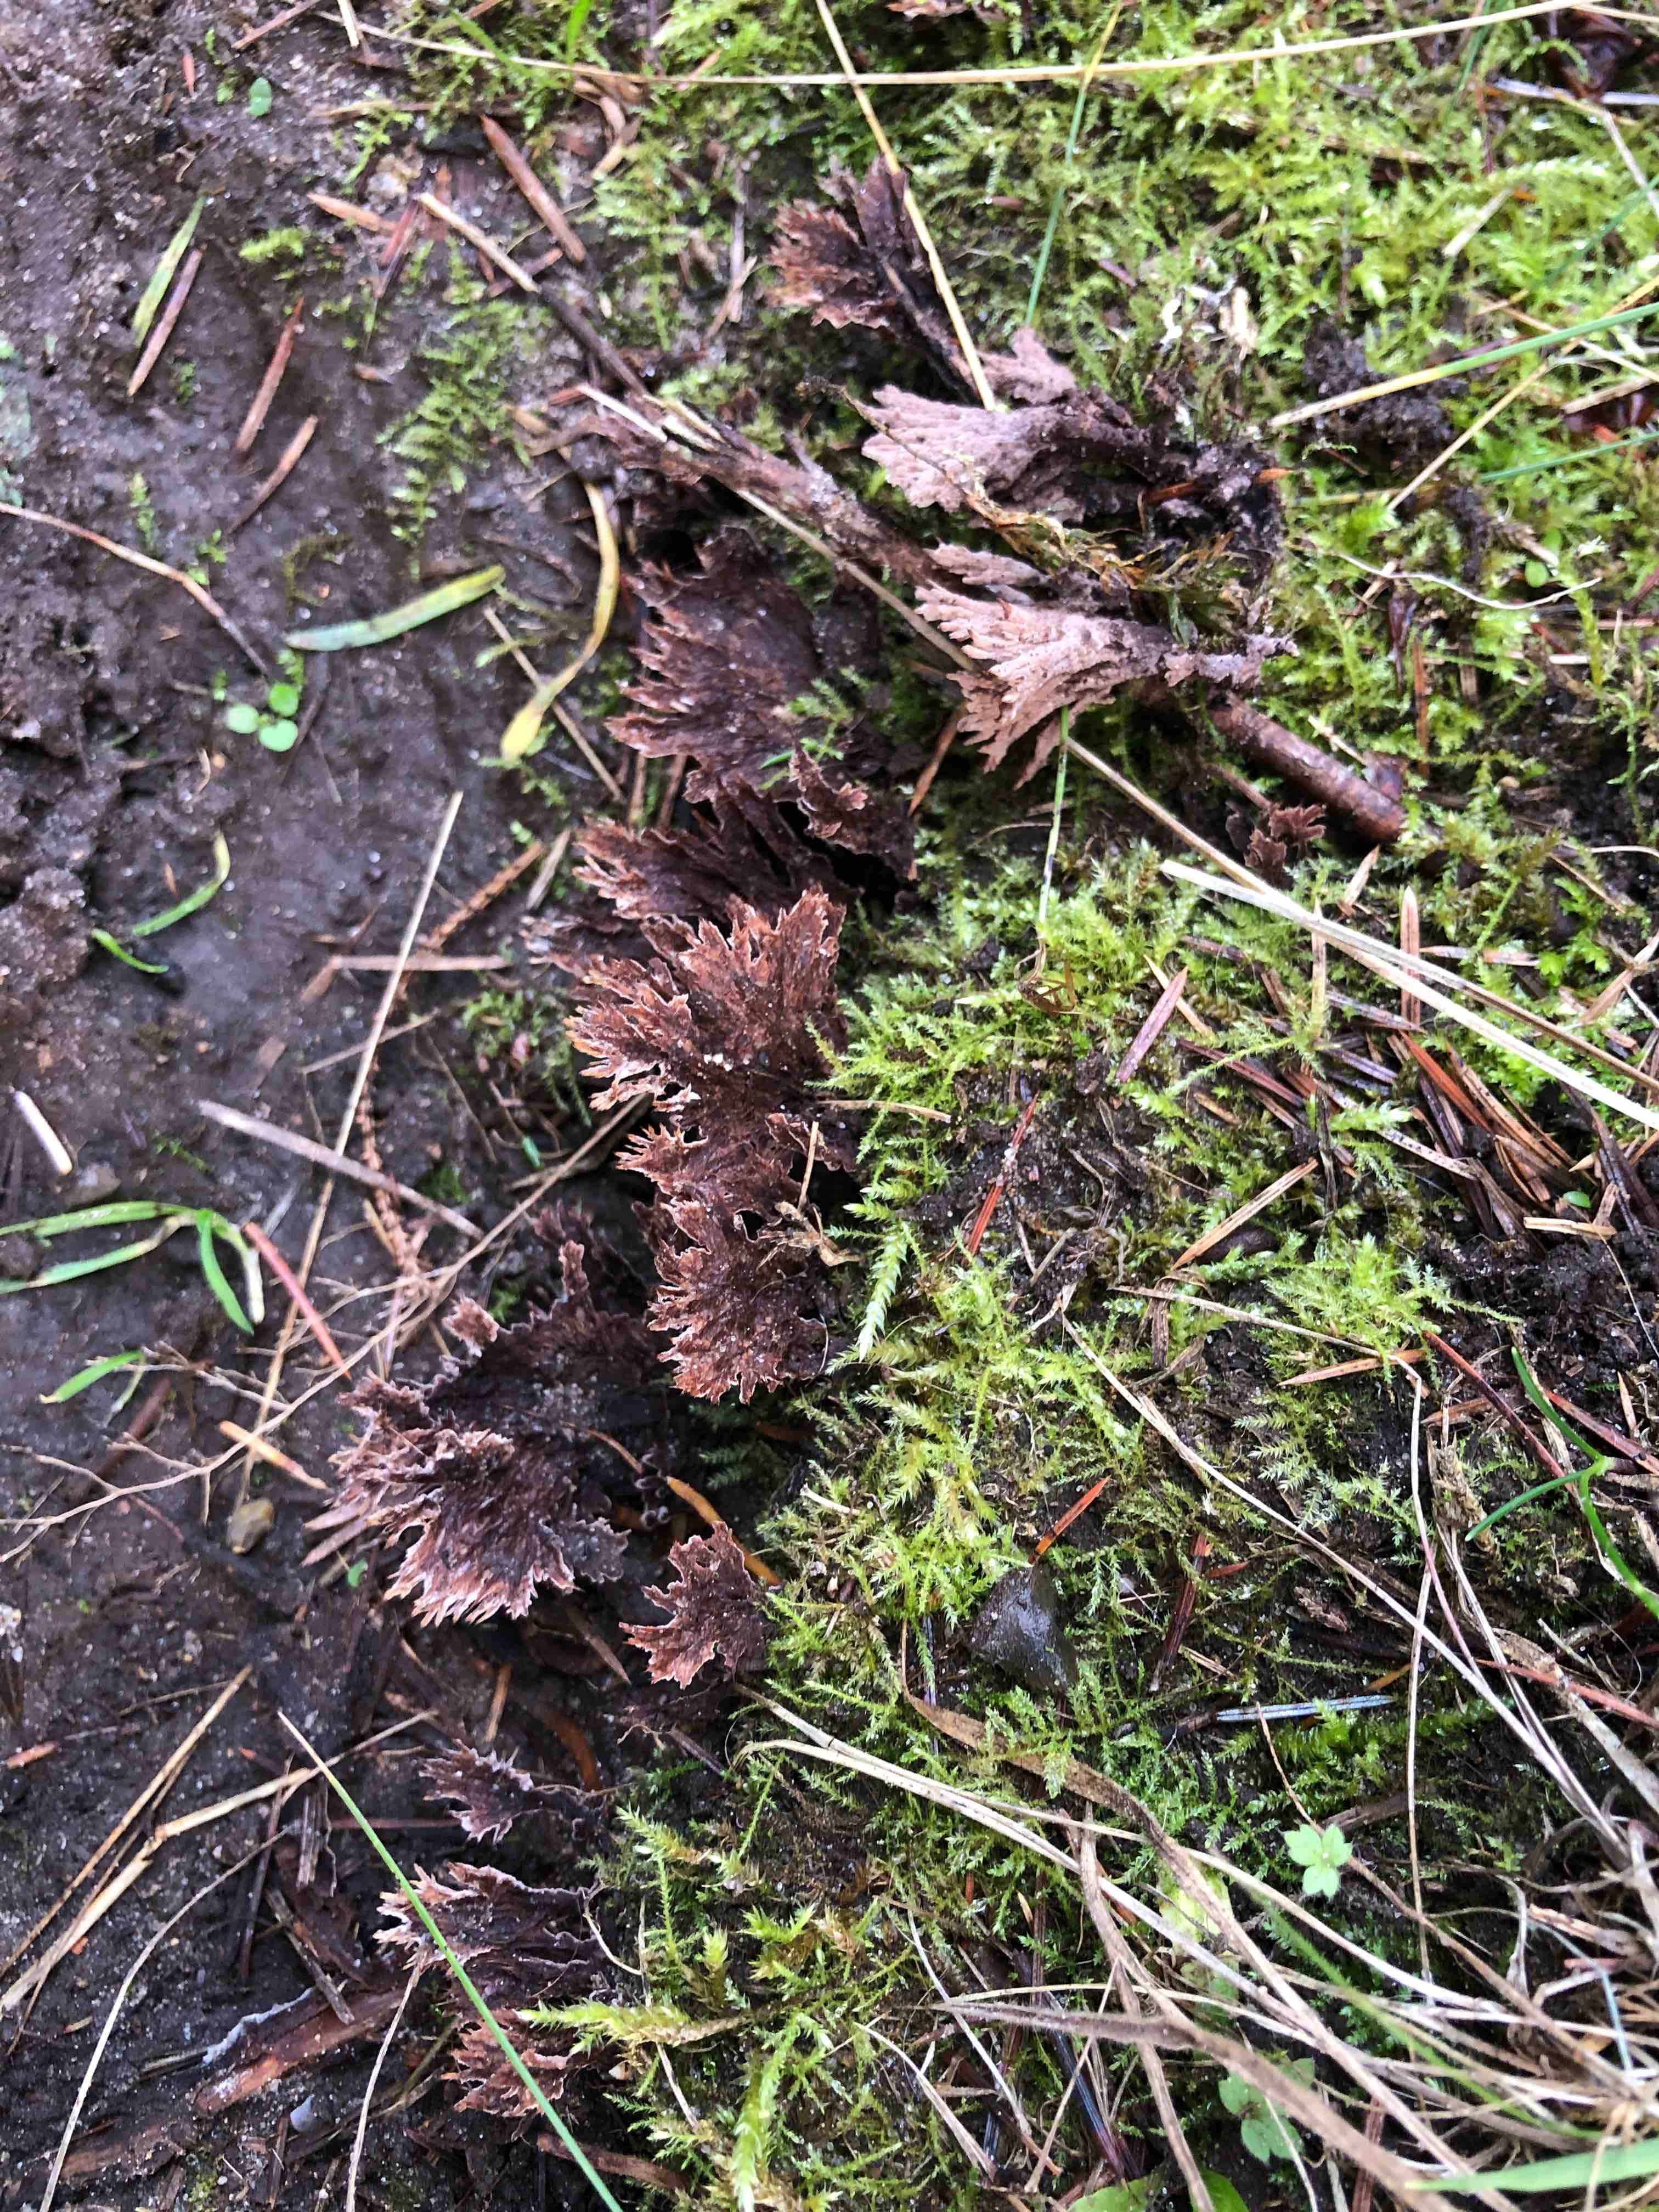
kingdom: Fungi
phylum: Basidiomycota
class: Agaricomycetes
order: Thelephorales
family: Thelephoraceae
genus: Thelephora
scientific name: Thelephora terrestris
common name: fliget frynsesvamp
